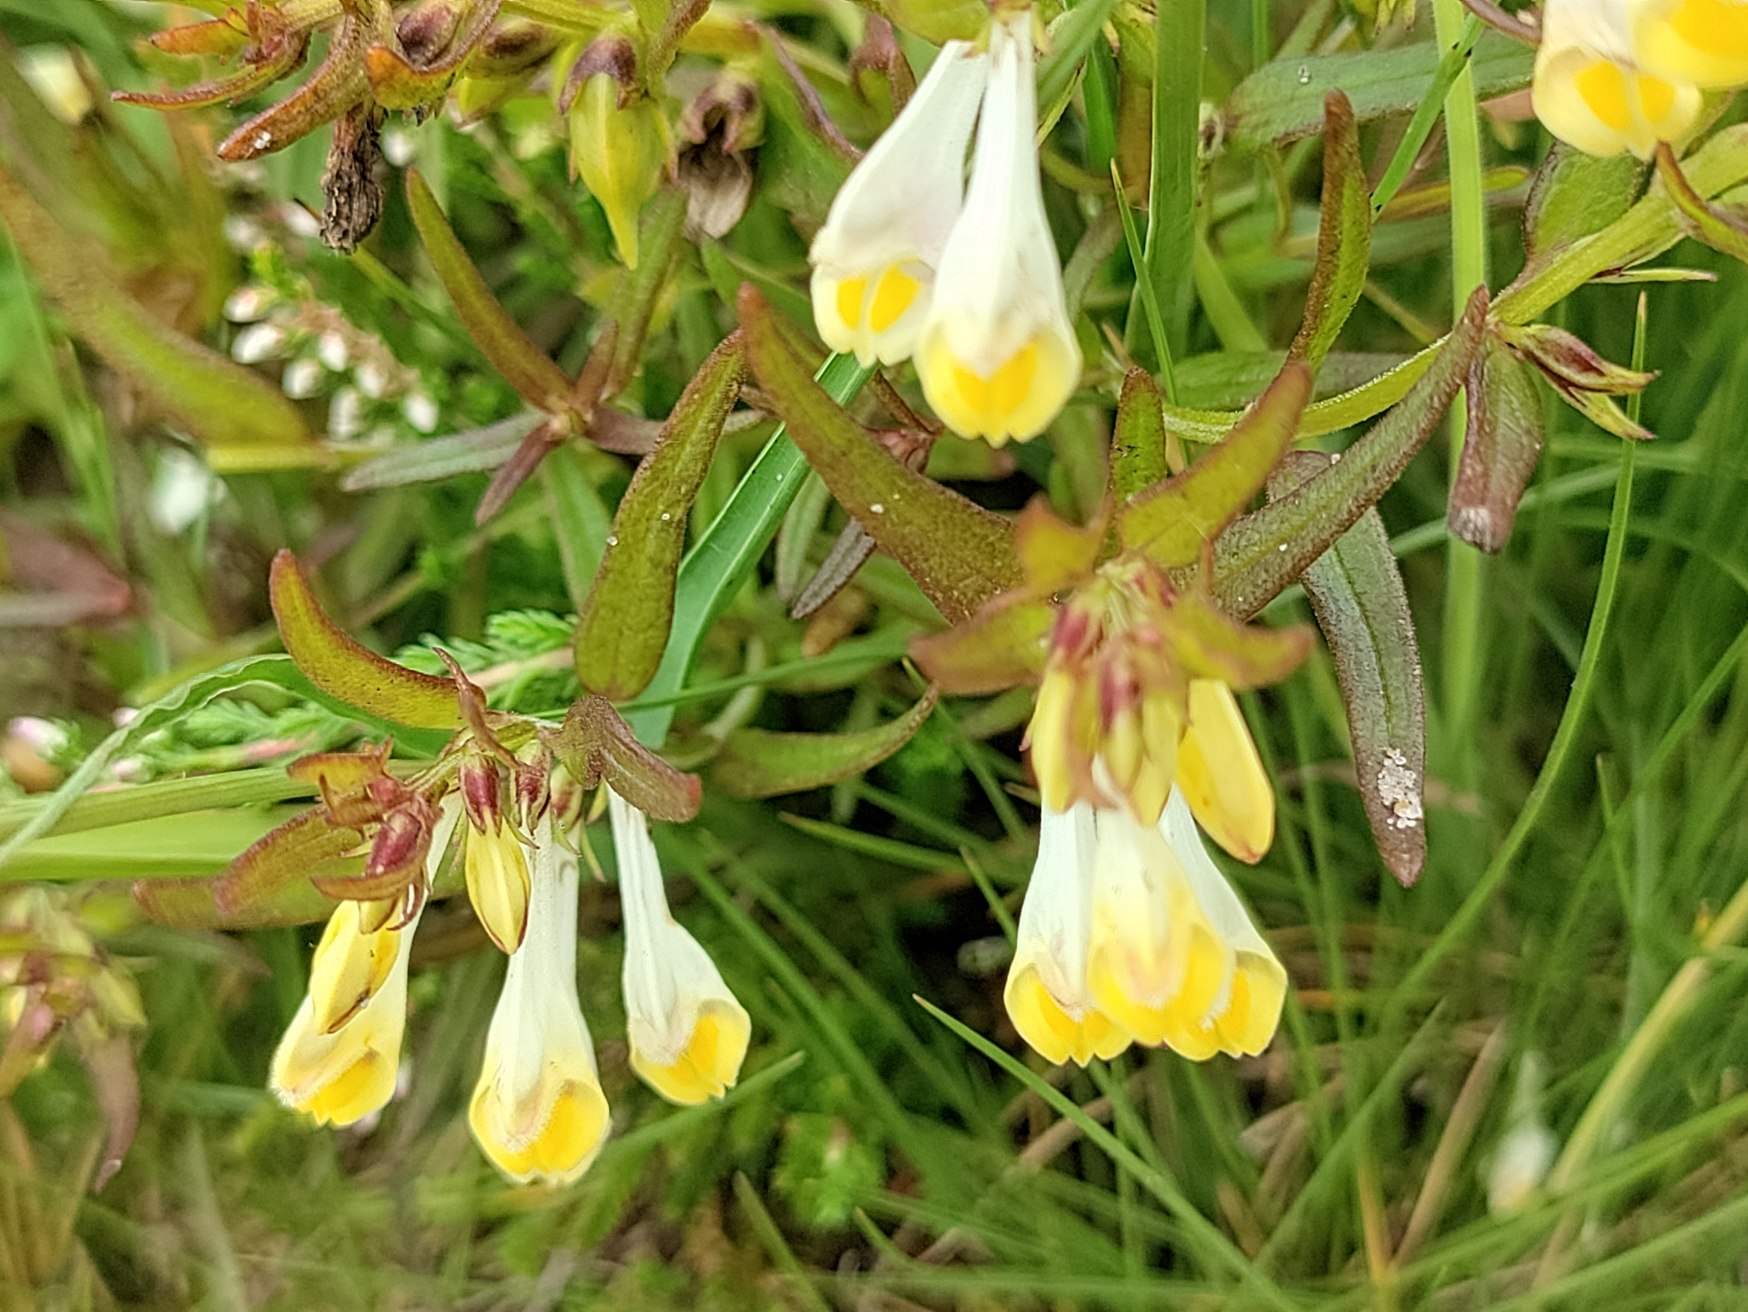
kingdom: Plantae
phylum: Tracheophyta
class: Magnoliopsida
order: Lamiales
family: Orobanchaceae
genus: Melampyrum
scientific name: Melampyrum pratense
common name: Almindelig kohvede
